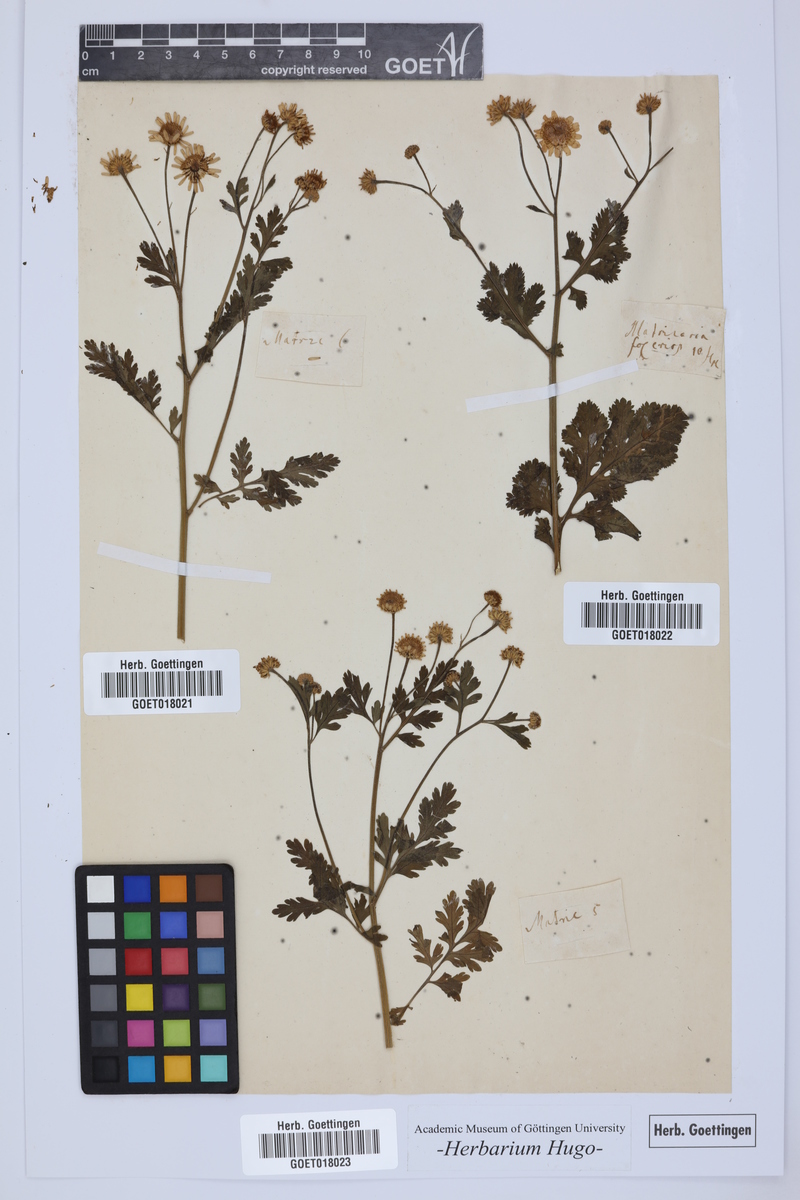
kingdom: Plantae
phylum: Tracheophyta
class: Magnoliopsida
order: Asterales
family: Asteraceae
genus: Matricaria
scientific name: Matricaria
